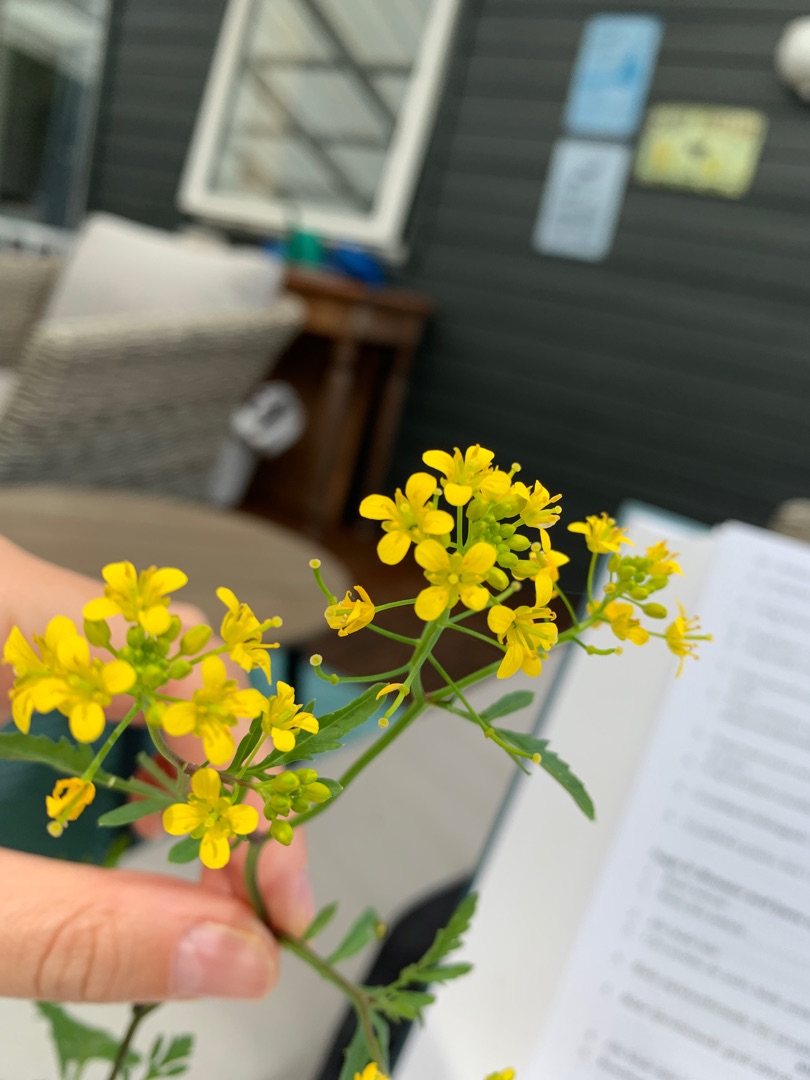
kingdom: Plantae
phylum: Tracheophyta
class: Magnoliopsida
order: Brassicales
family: Brassicaceae
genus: Rorippa
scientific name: Rorippa sylvestris
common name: Vej-guldkarse
